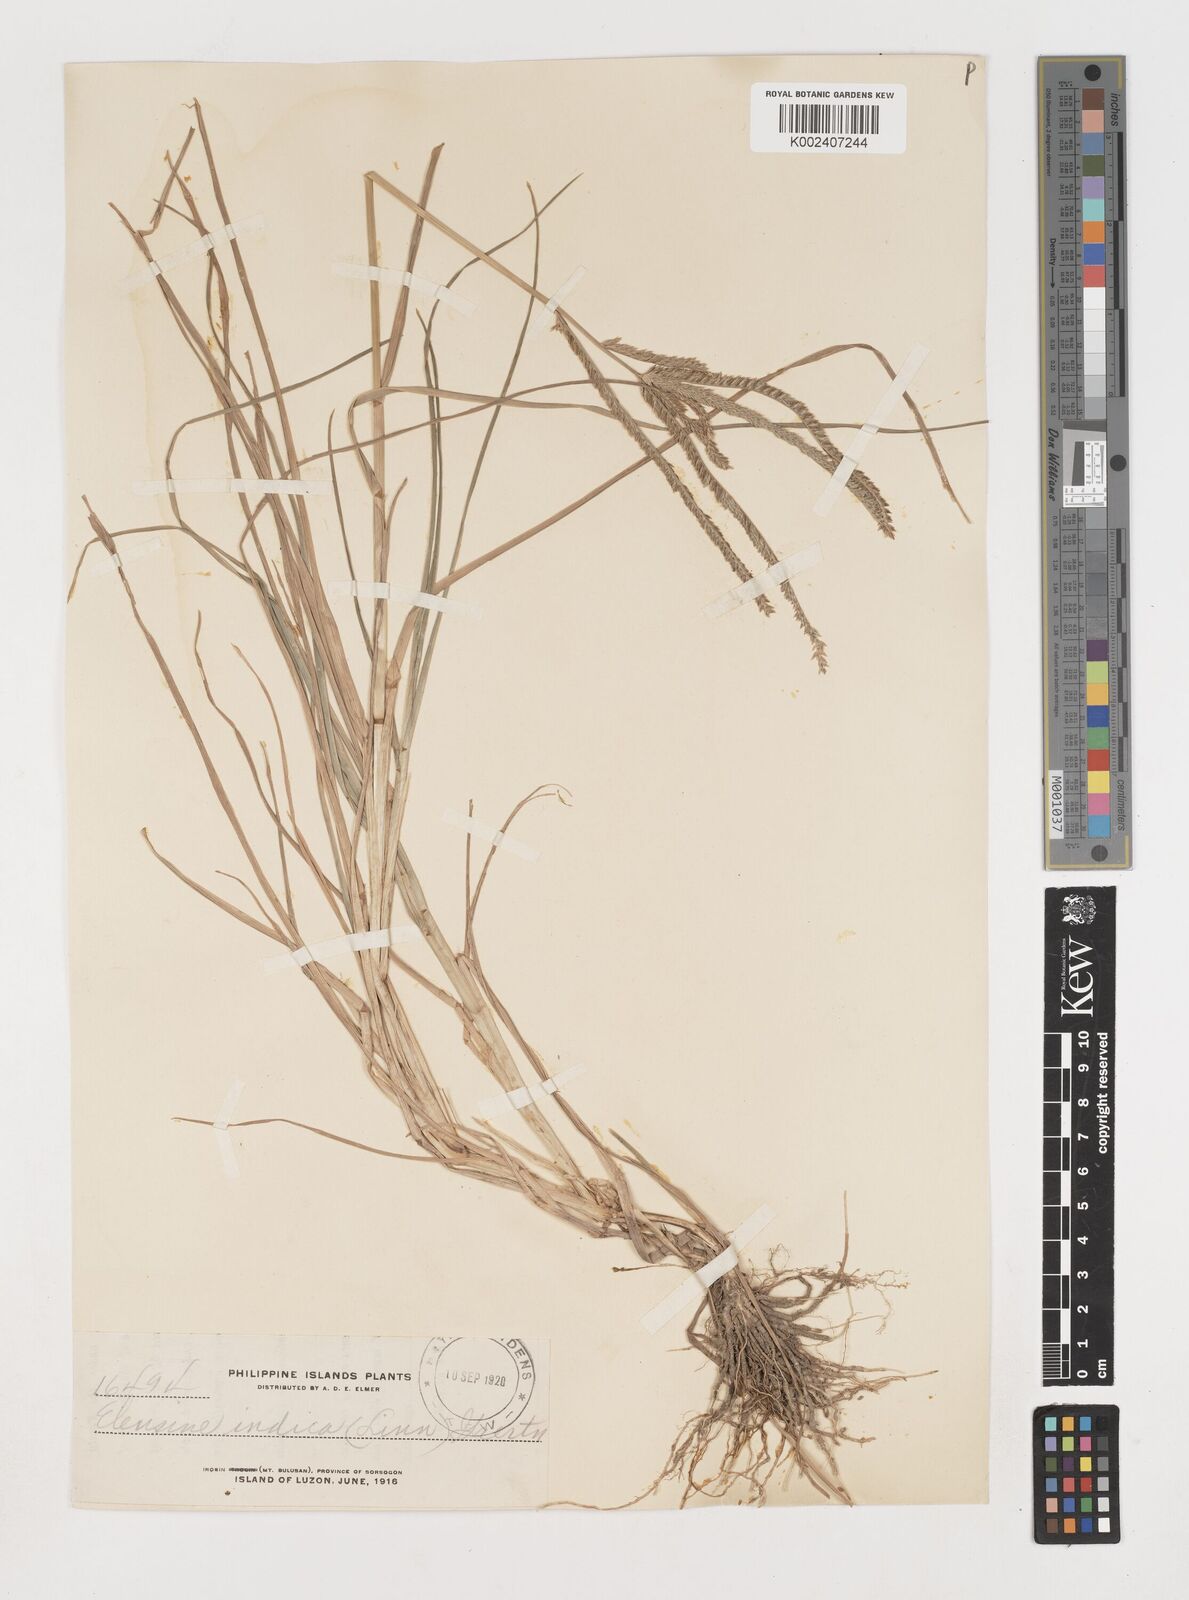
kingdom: Plantae
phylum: Tracheophyta
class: Liliopsida
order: Poales
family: Poaceae
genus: Eleusine
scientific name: Eleusine indica
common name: Yard-grass
